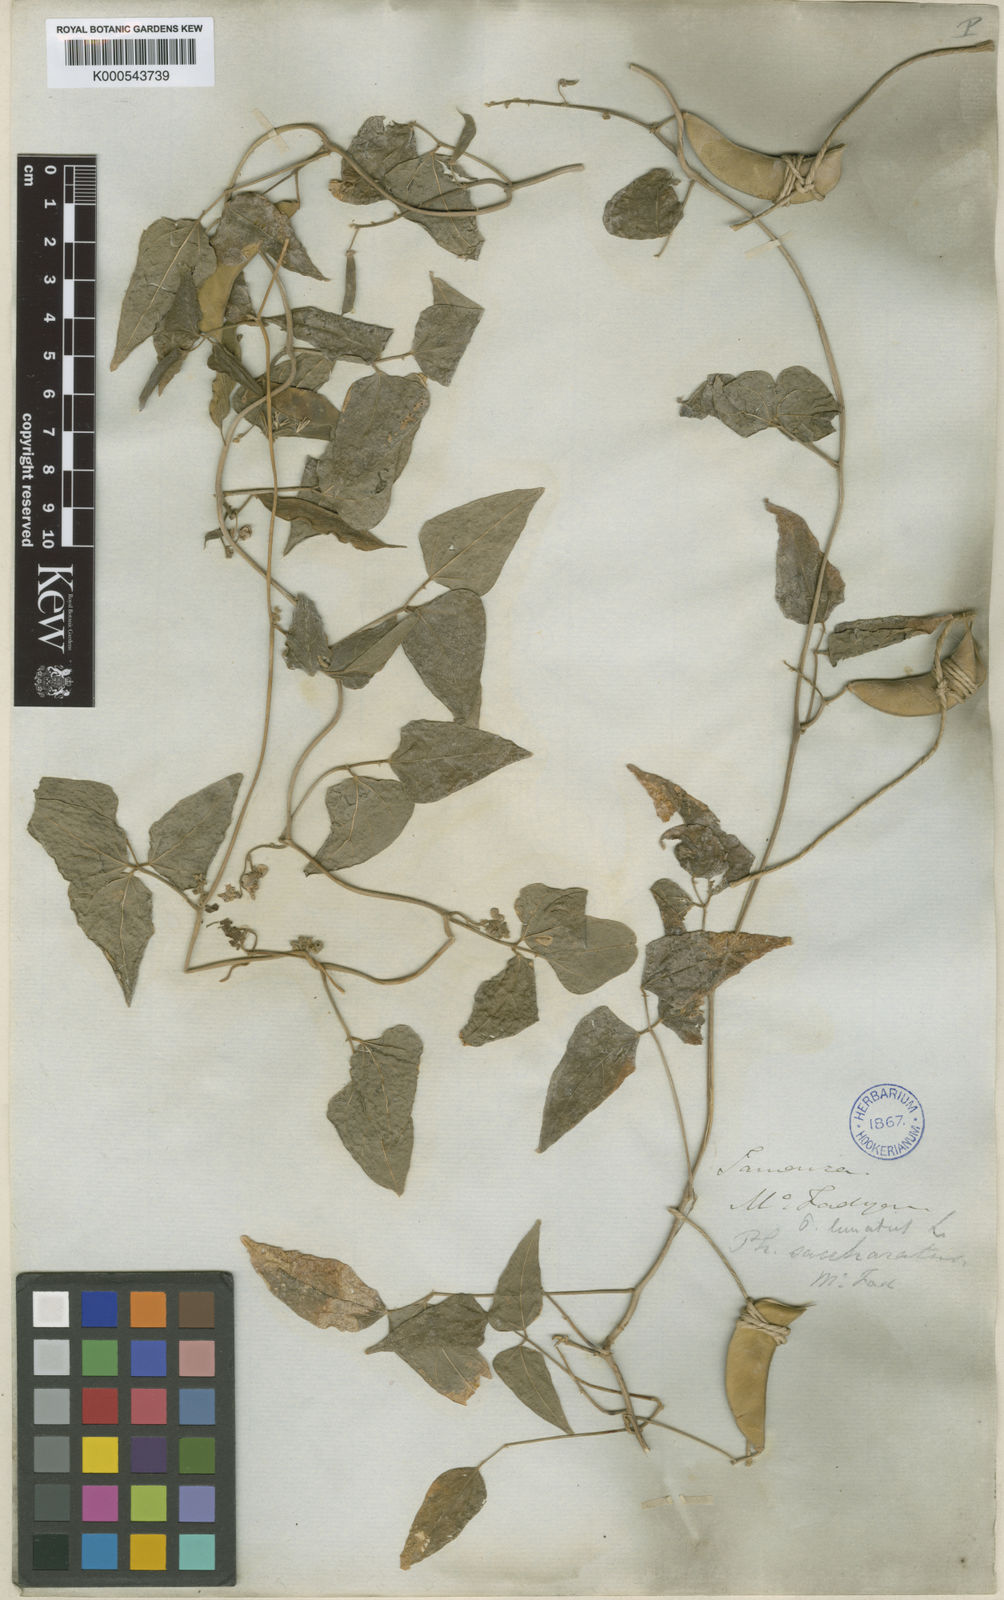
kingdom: Plantae
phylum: Tracheophyta
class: Magnoliopsida
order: Fabales
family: Fabaceae
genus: Phaseolus
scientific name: Phaseolus lunatus
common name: Sieva bean
